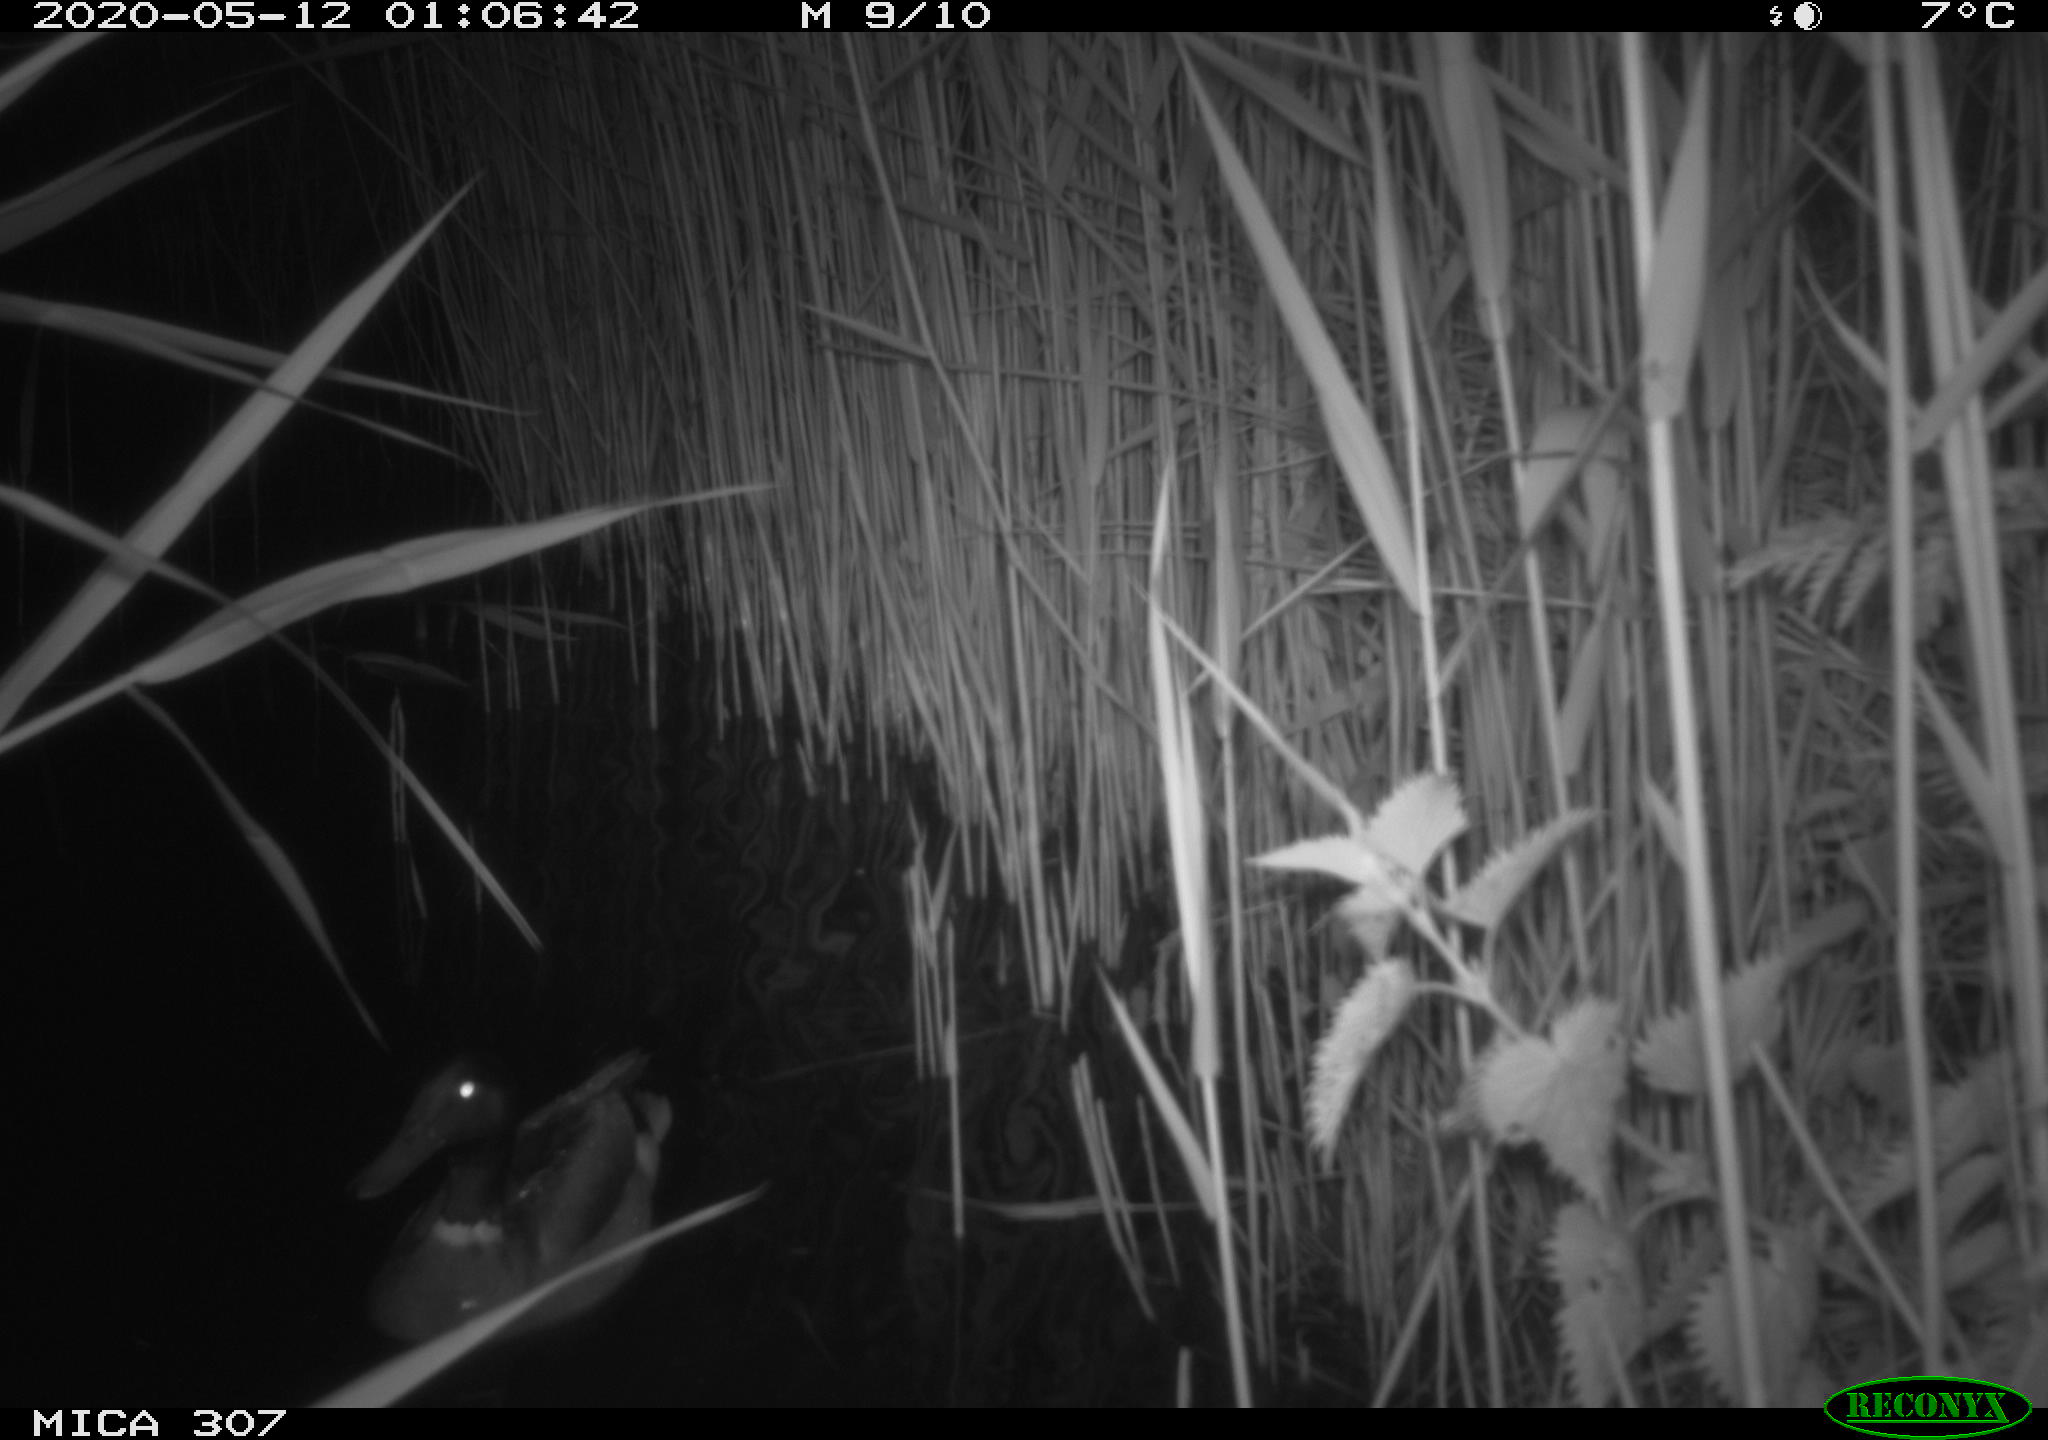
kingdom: Animalia
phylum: Chordata
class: Aves
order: Anseriformes
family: Anatidae
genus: Anas
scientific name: Anas platyrhynchos
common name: Mallard
